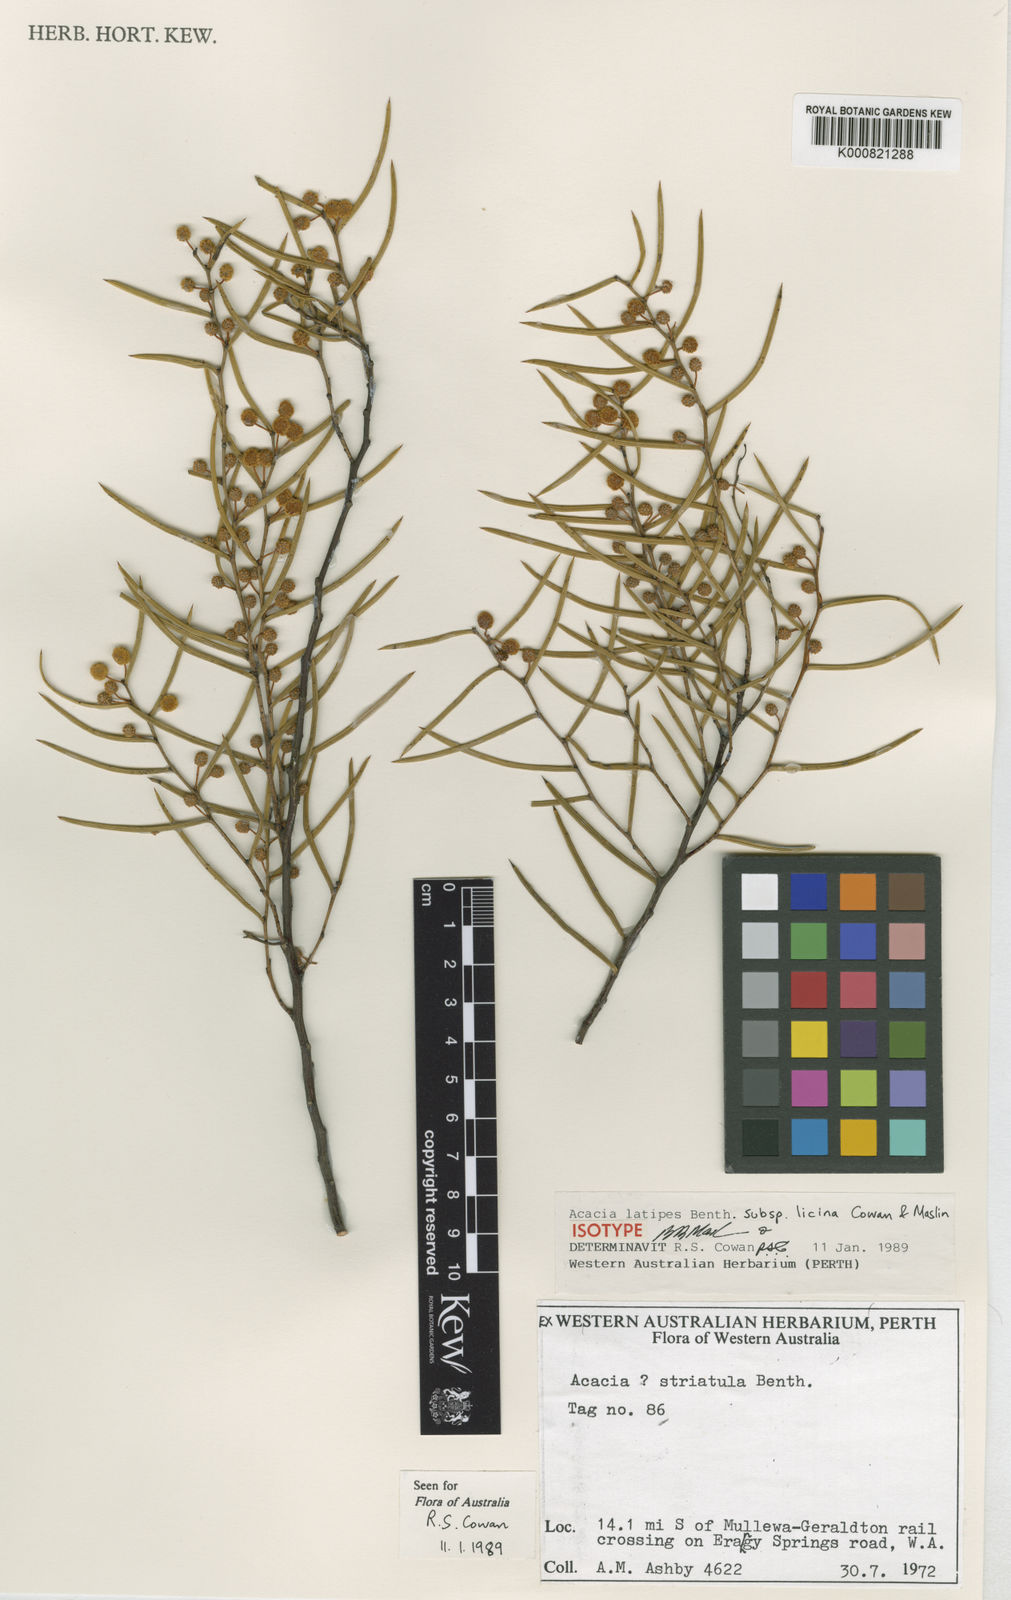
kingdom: Plantae
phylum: Tracheophyta
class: Magnoliopsida
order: Fabales
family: Fabaceae
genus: Acacia
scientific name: Acacia latipes
